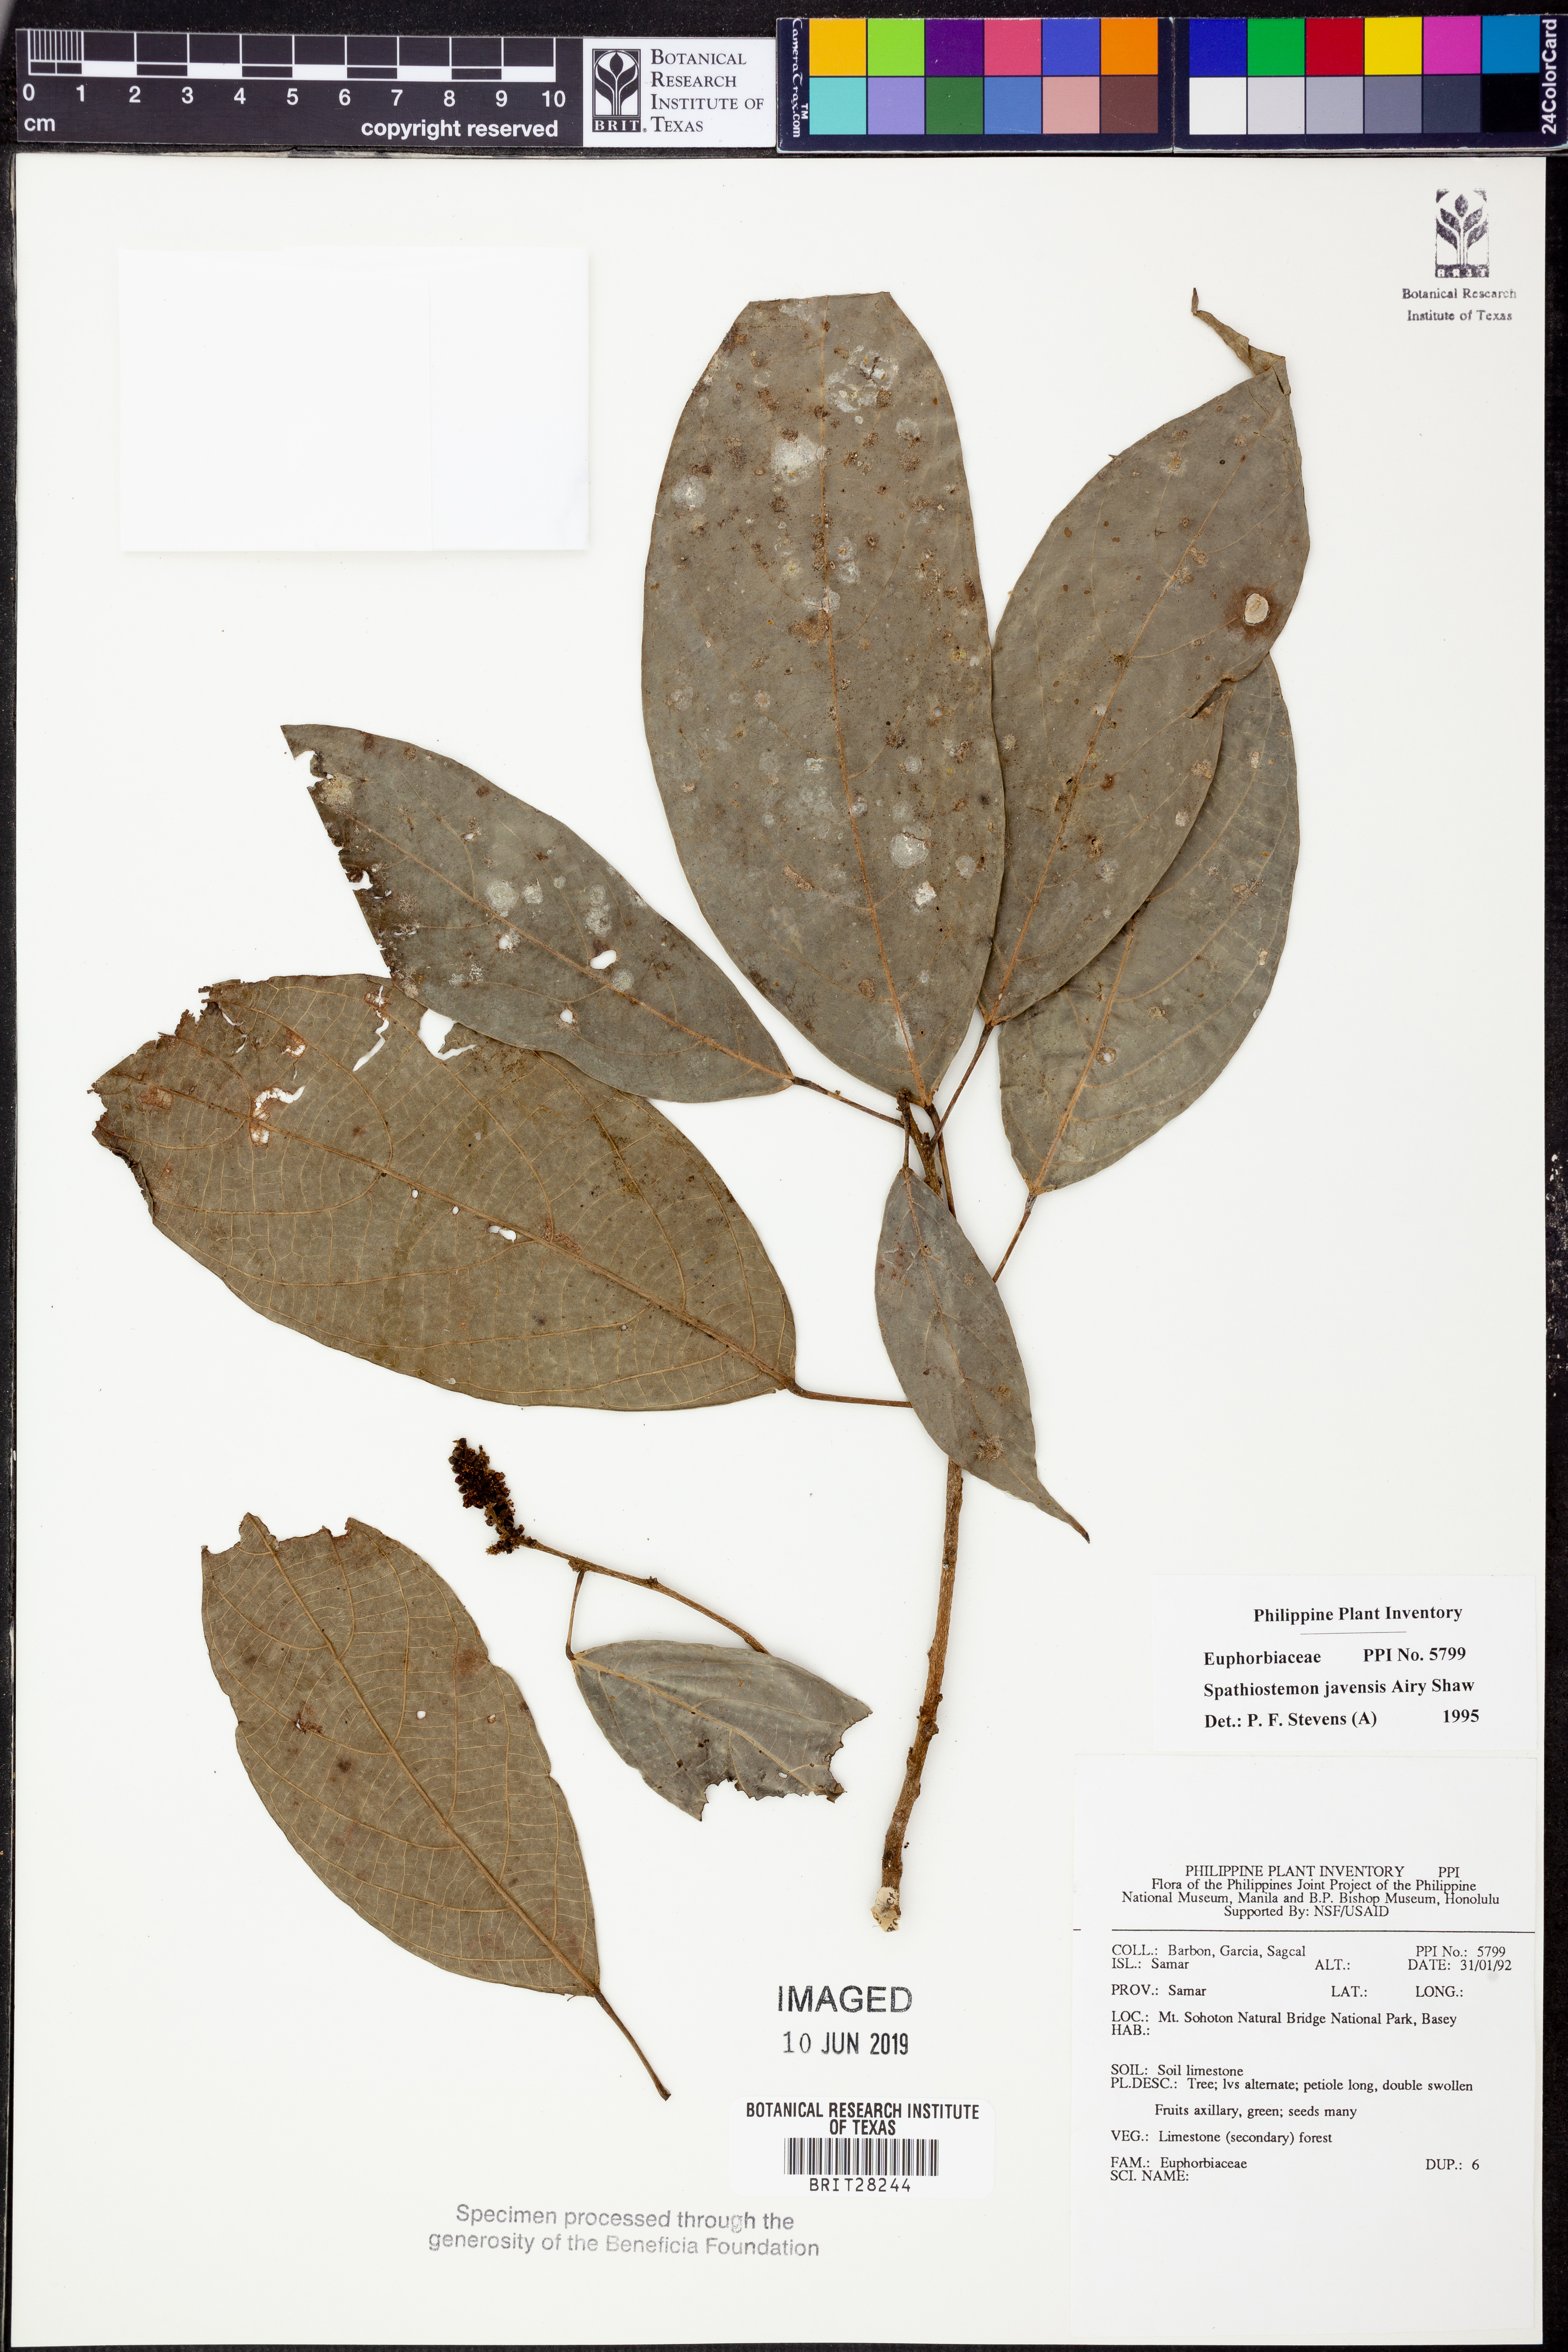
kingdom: Plantae
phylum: Tracheophyta
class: Magnoliopsida
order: Malpighiales
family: Euphorbiaceae
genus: Spathiostemon
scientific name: Spathiostemon javensis
